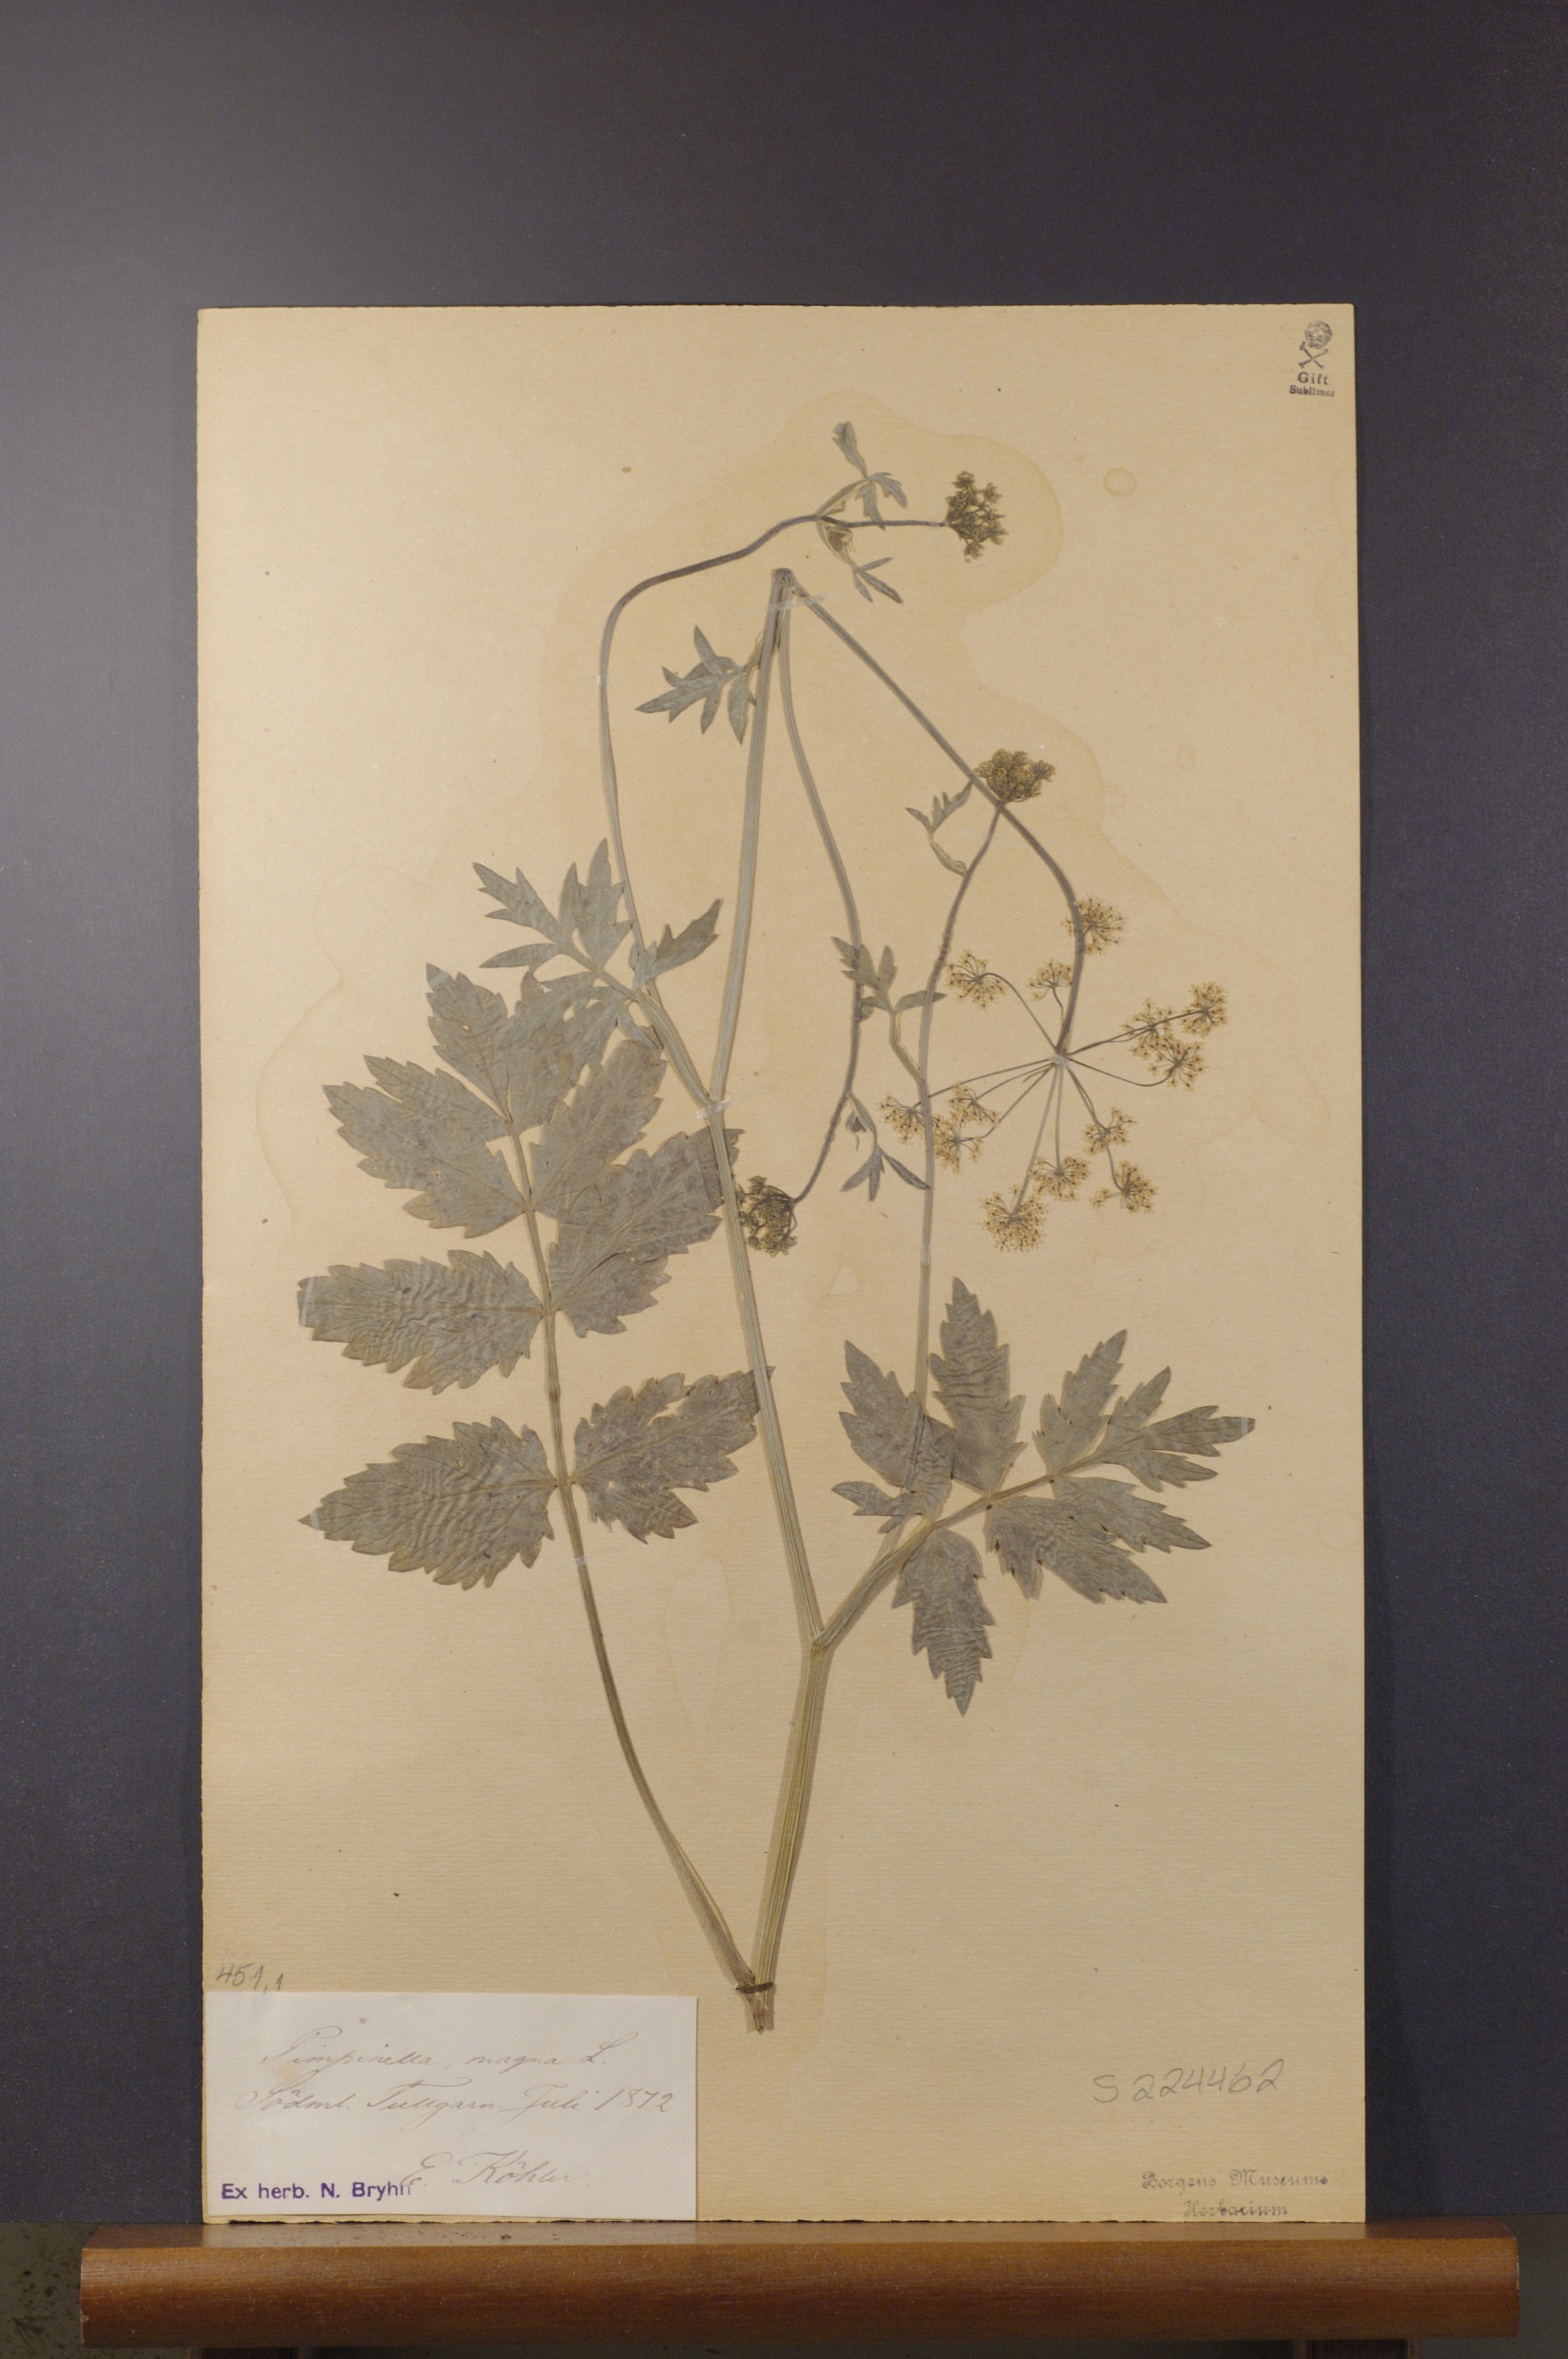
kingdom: Plantae
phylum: Tracheophyta
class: Magnoliopsida
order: Apiales
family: Apiaceae
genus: Pimpinella
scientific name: Pimpinella major
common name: Greater burnet-saxifrage
